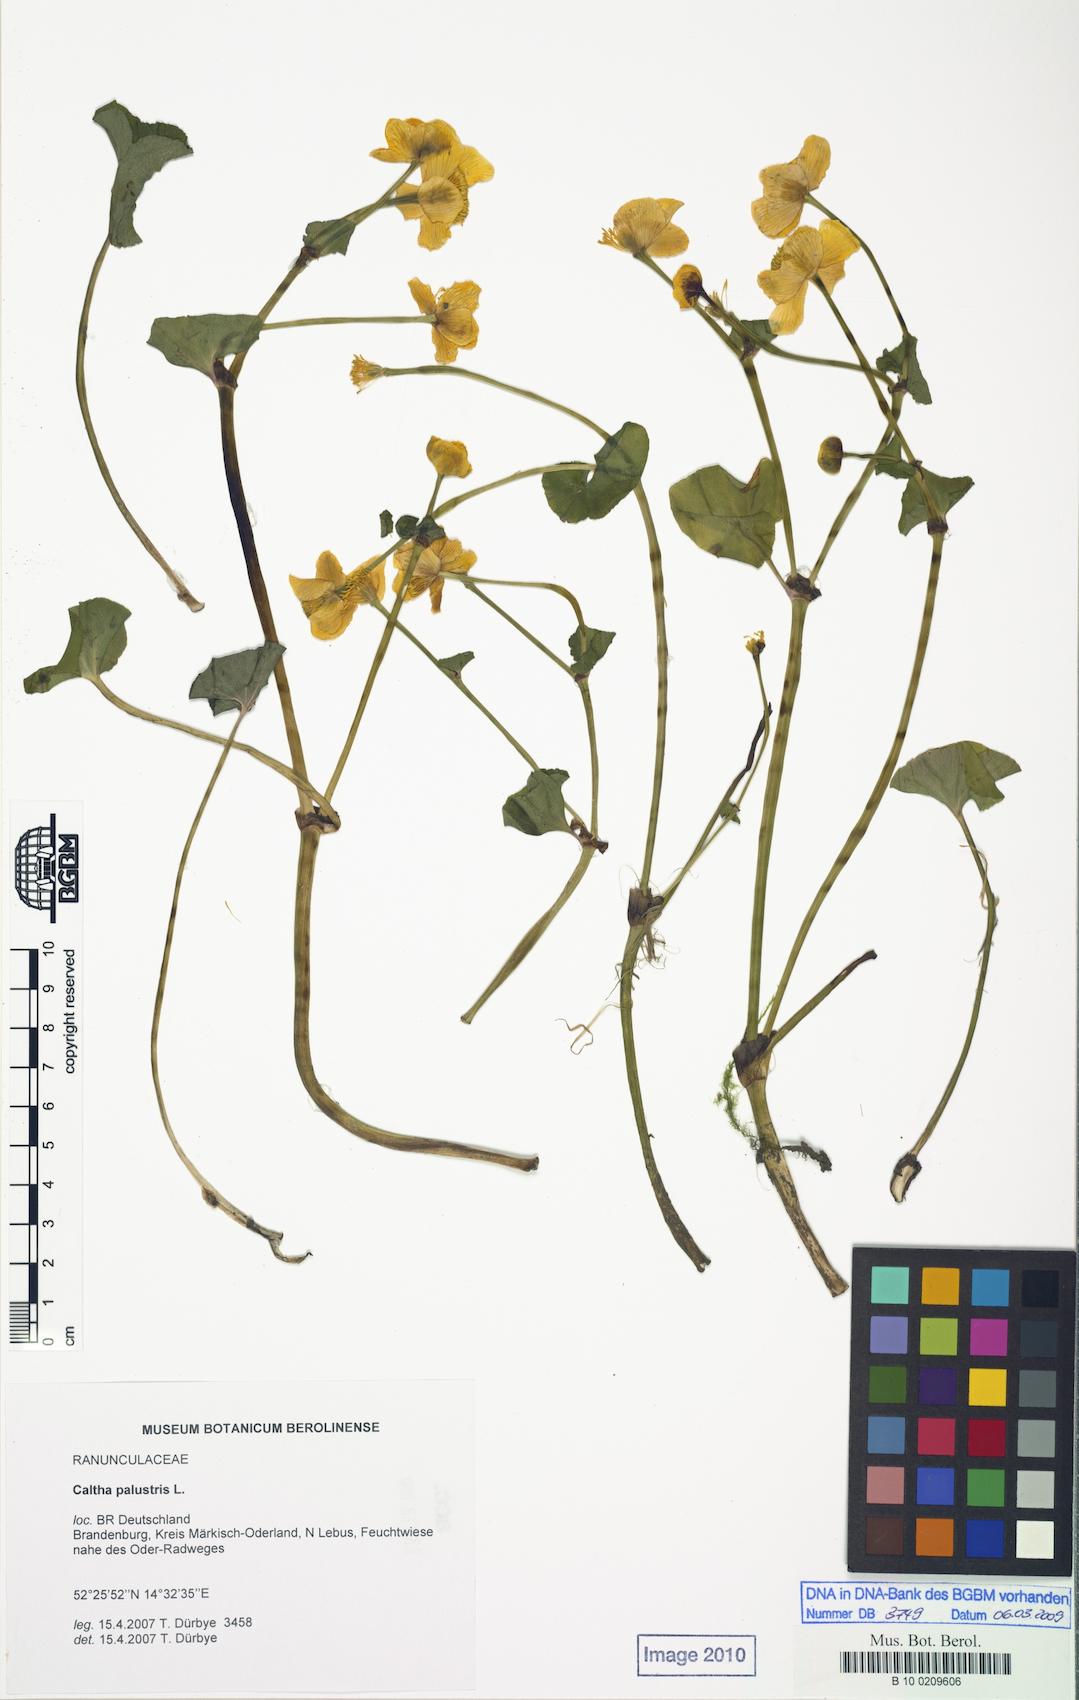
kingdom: Plantae
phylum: Tracheophyta
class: Magnoliopsida
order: Ranunculales
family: Ranunculaceae
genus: Caltha
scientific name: Caltha palustris
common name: Marsh marigold
